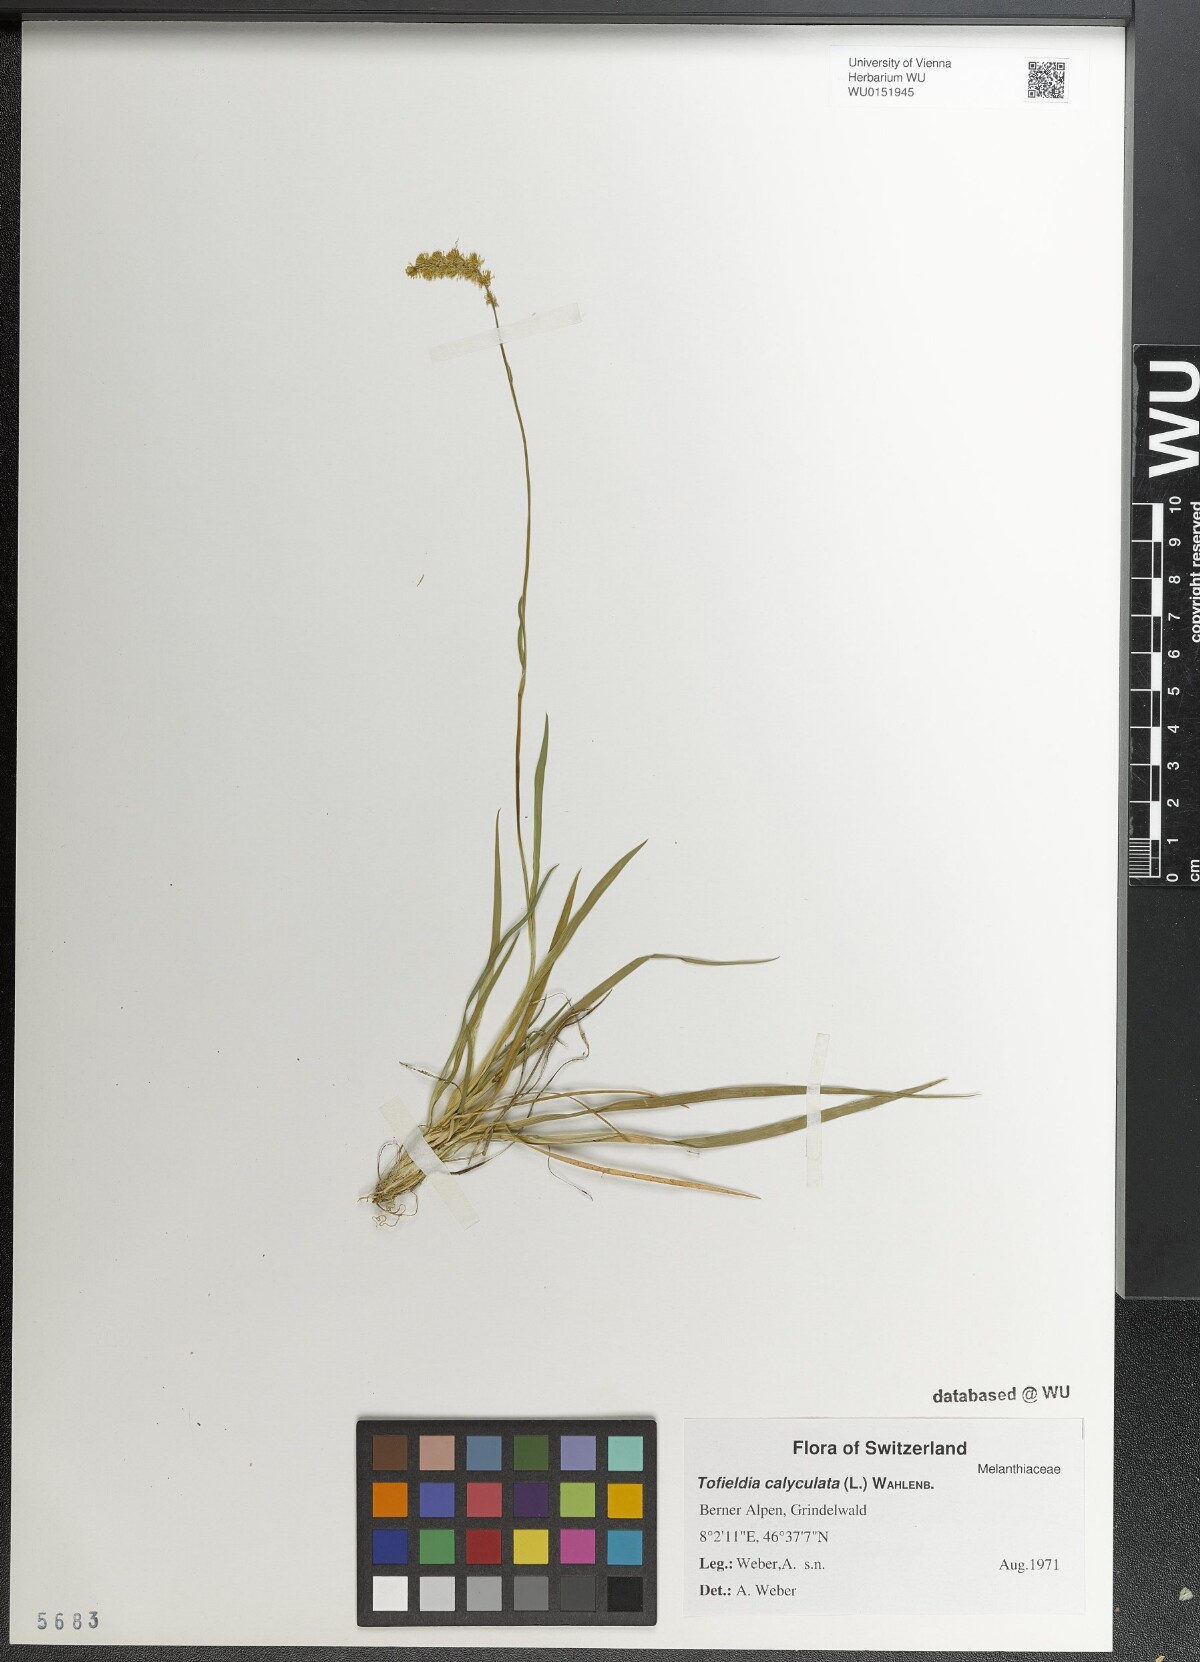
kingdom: Plantae
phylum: Tracheophyta
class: Liliopsida
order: Alismatales
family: Tofieldiaceae
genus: Tofieldia
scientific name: Tofieldia calyculata
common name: German-asphodel
